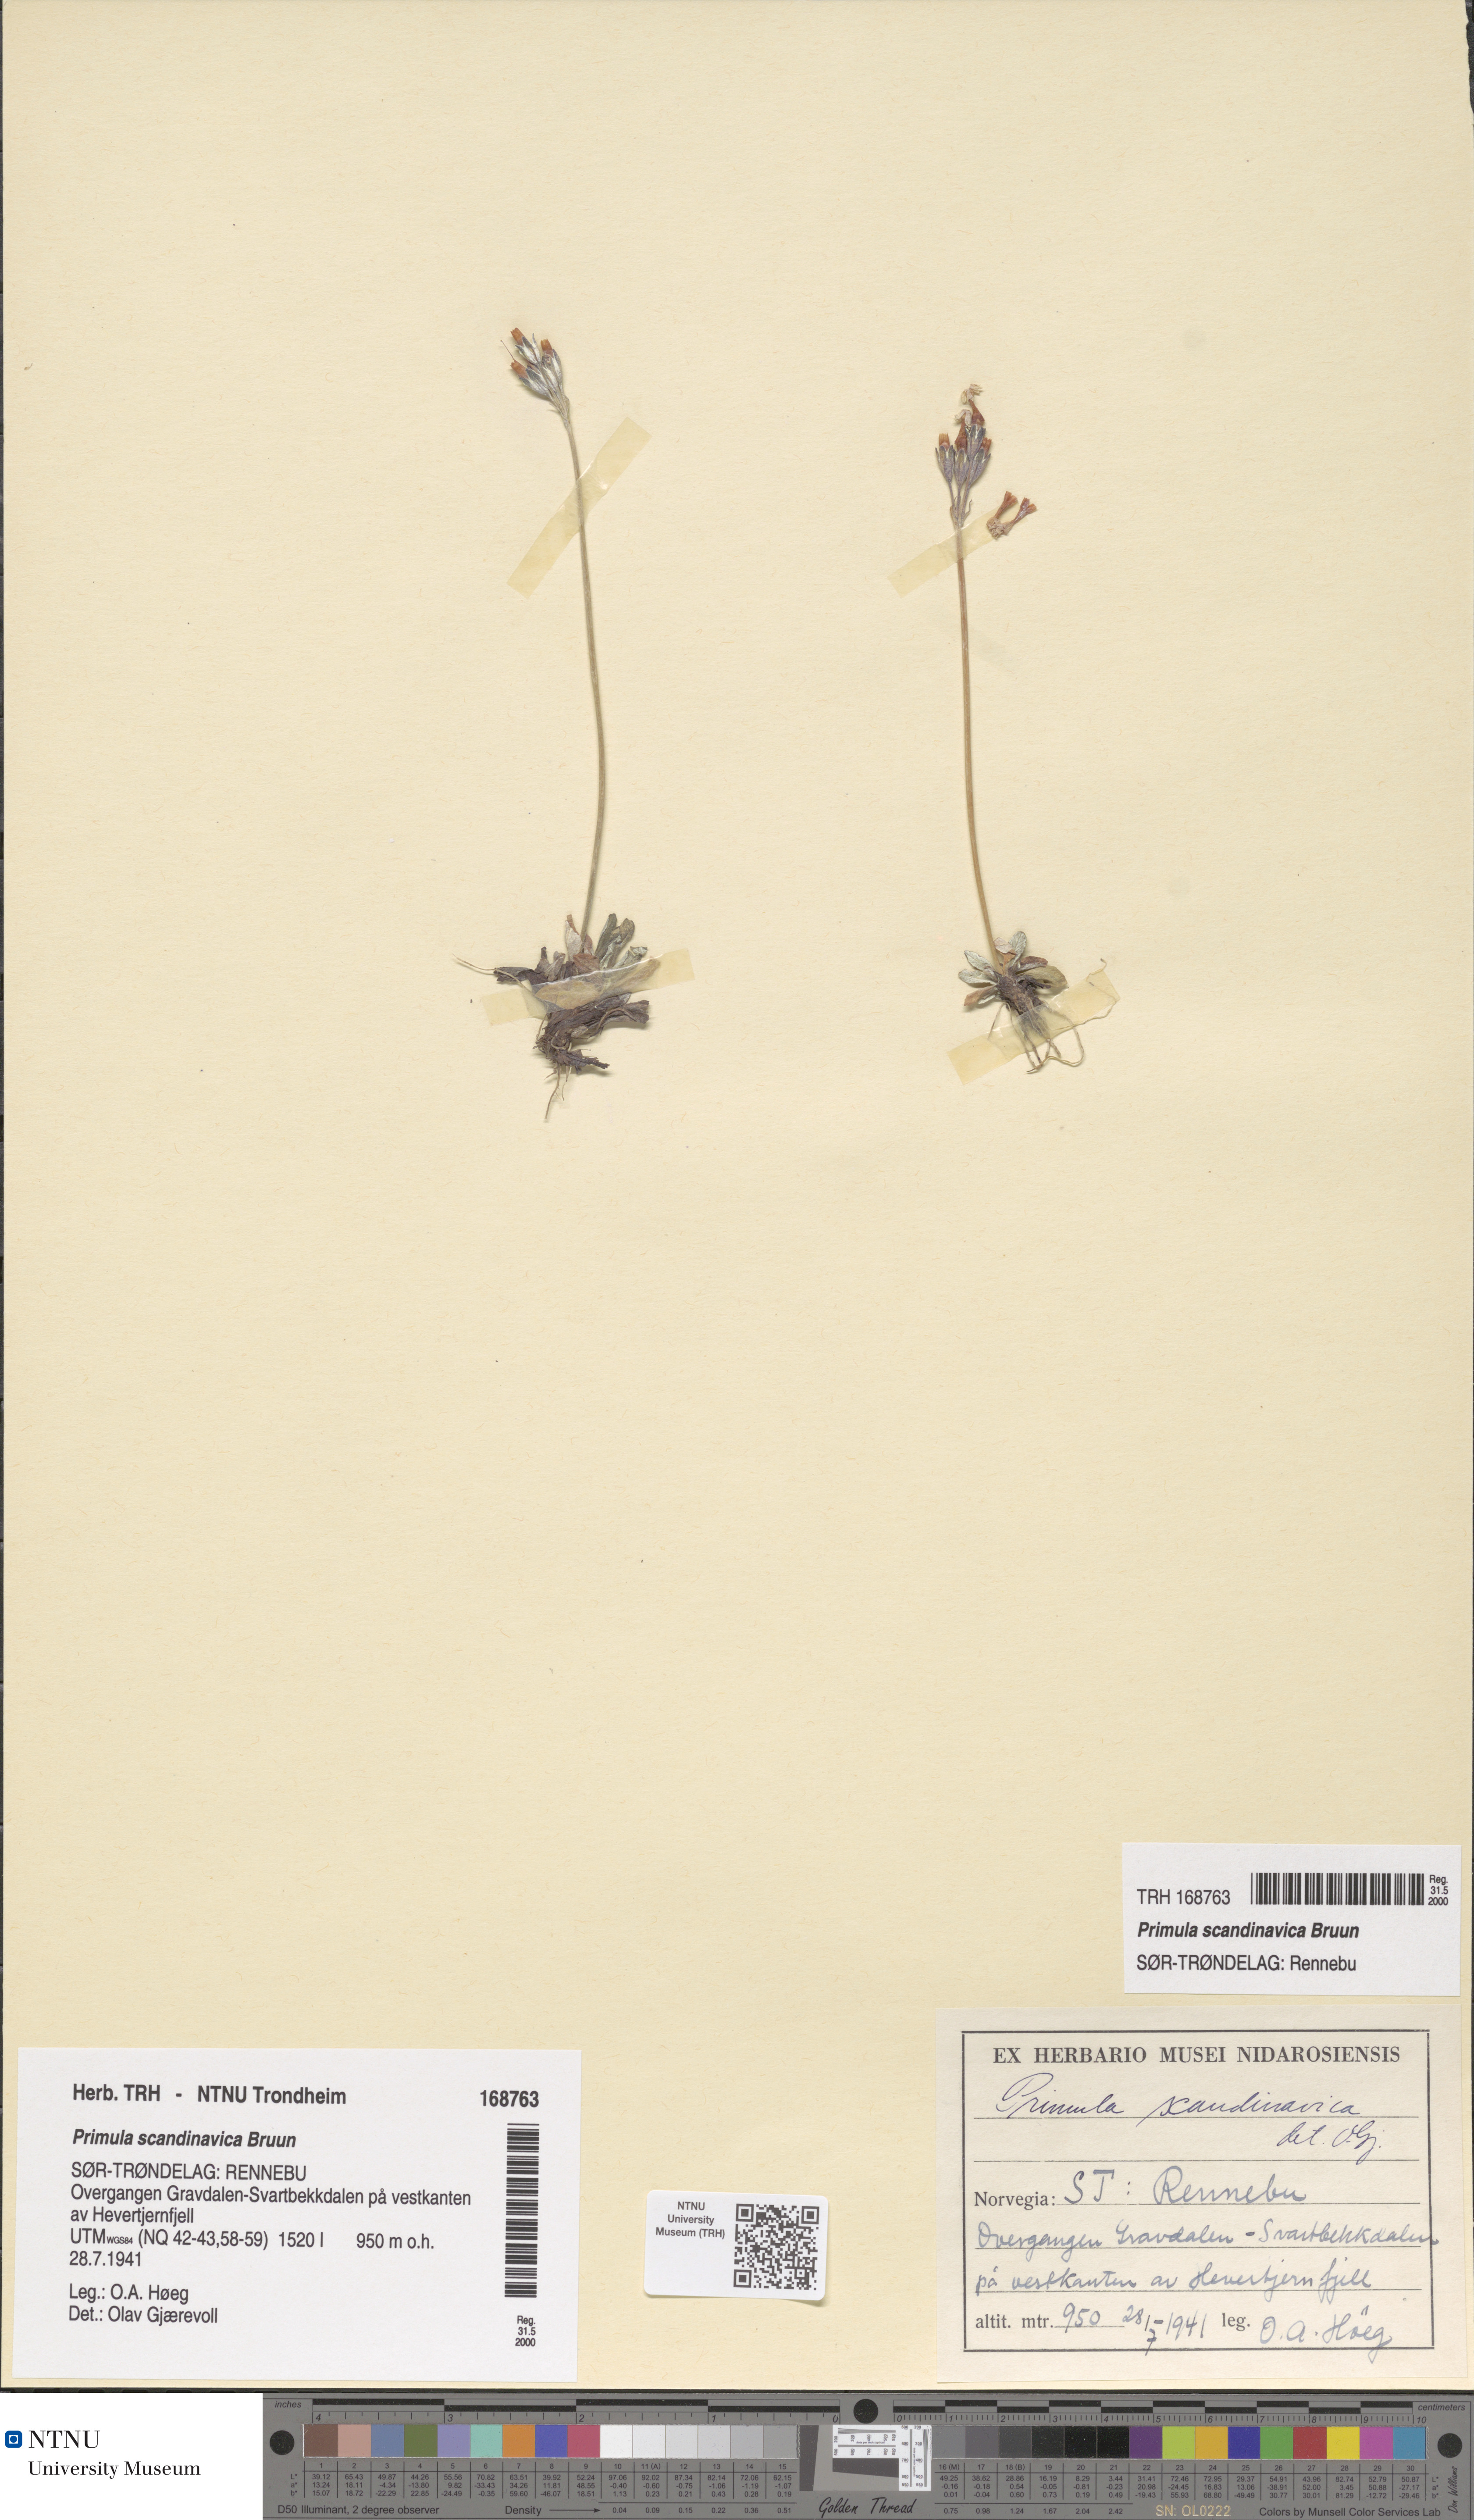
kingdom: Plantae
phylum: Tracheophyta
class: Magnoliopsida
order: Ericales
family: Primulaceae
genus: Primula
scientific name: Primula scandinavica
